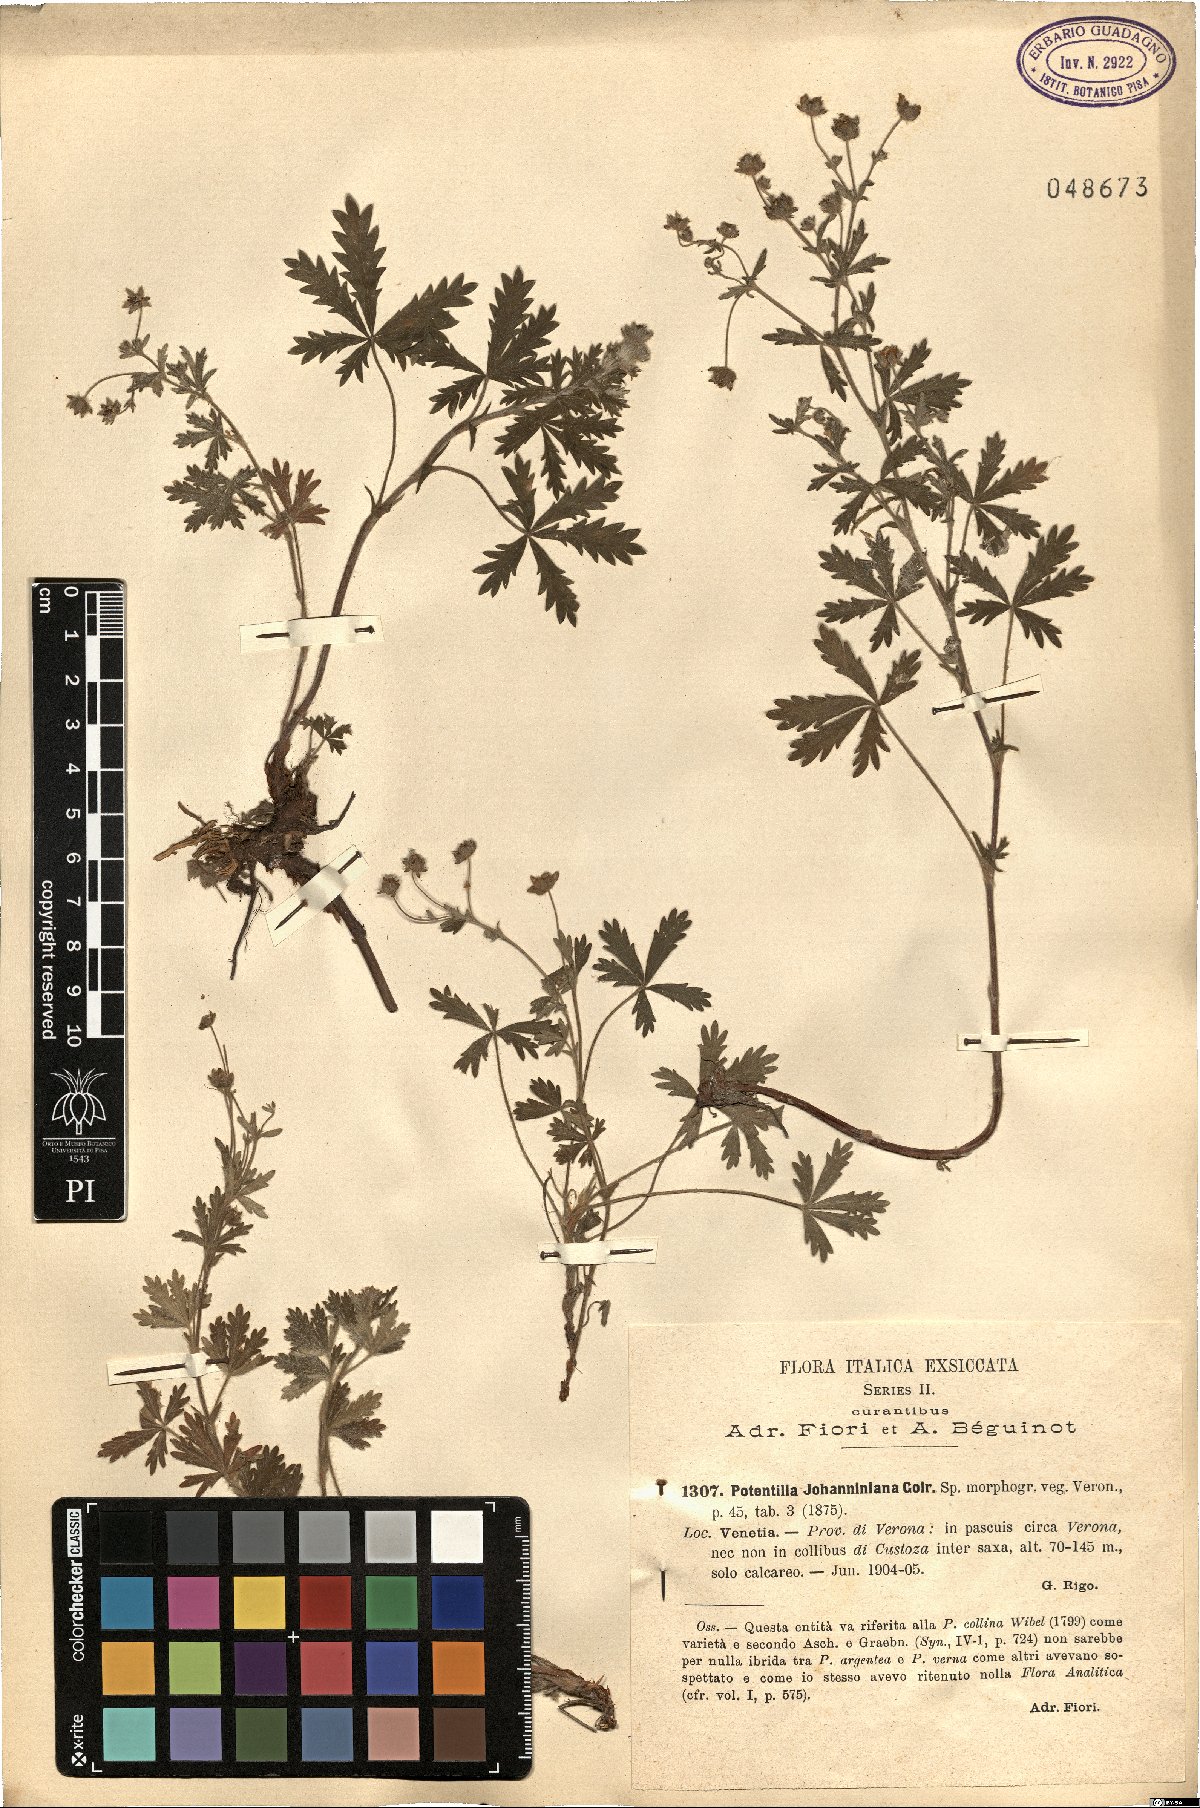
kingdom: Plantae
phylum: Tracheophyta
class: Magnoliopsida
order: Rosales
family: Rosaceae
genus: Potentilla
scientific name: Potentilla johanniniana
